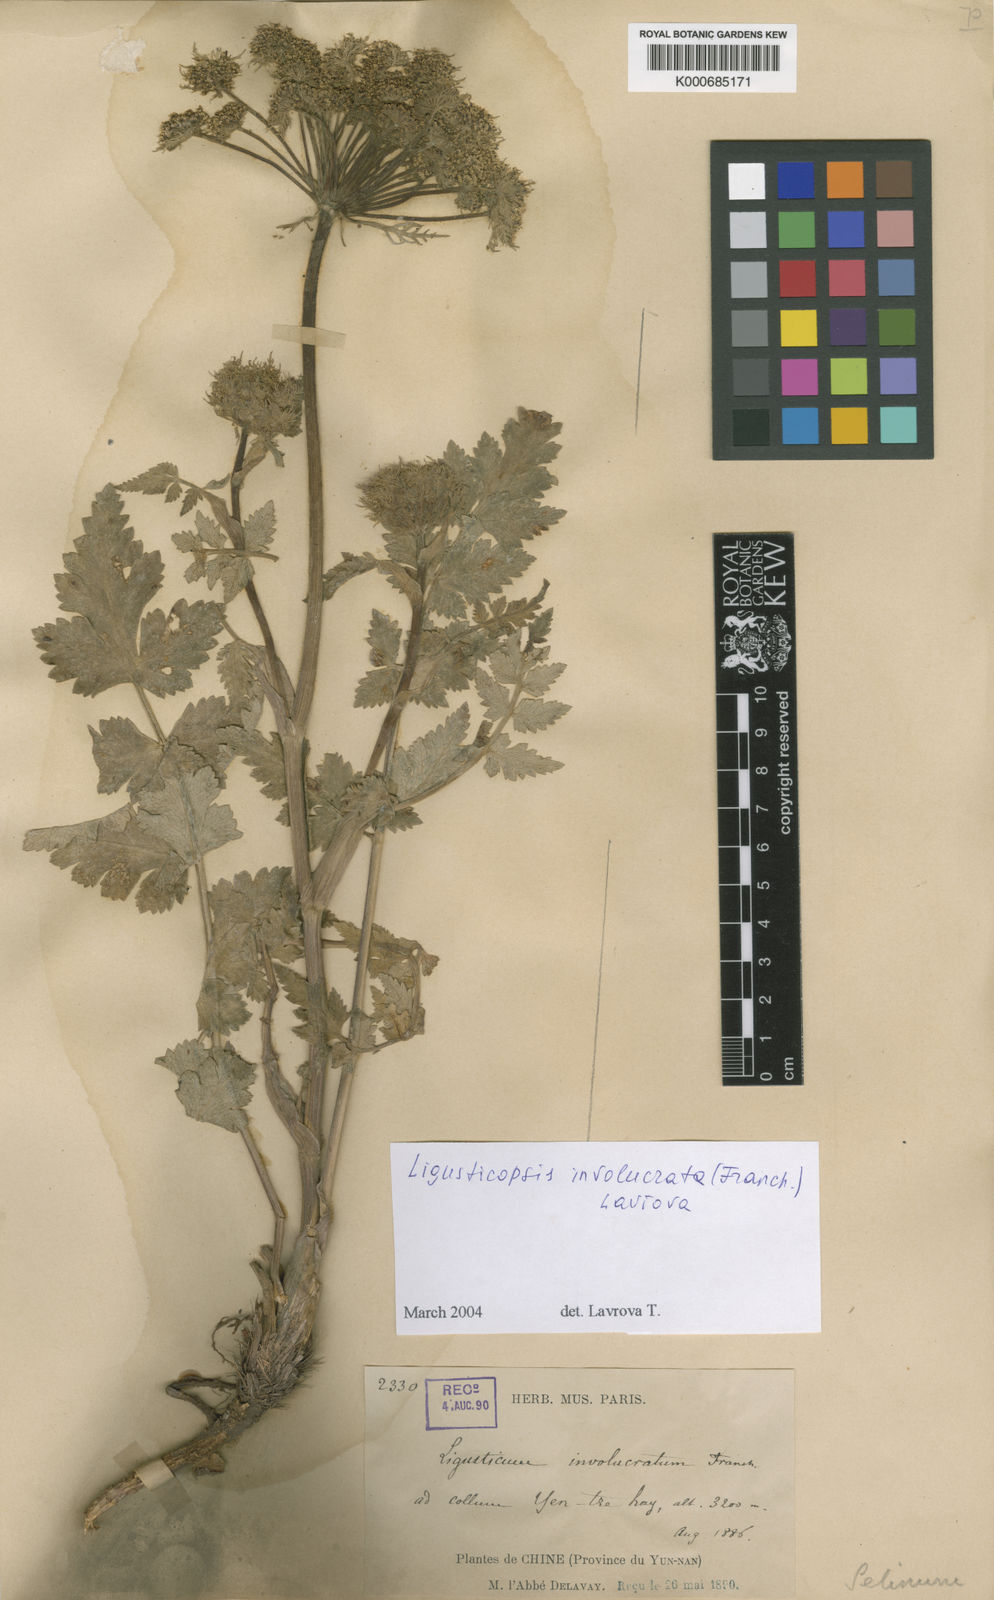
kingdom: Plantae
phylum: Tracheophyta
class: Magnoliopsida
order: Apiales
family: Apiaceae
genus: Selinum
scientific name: Selinum
